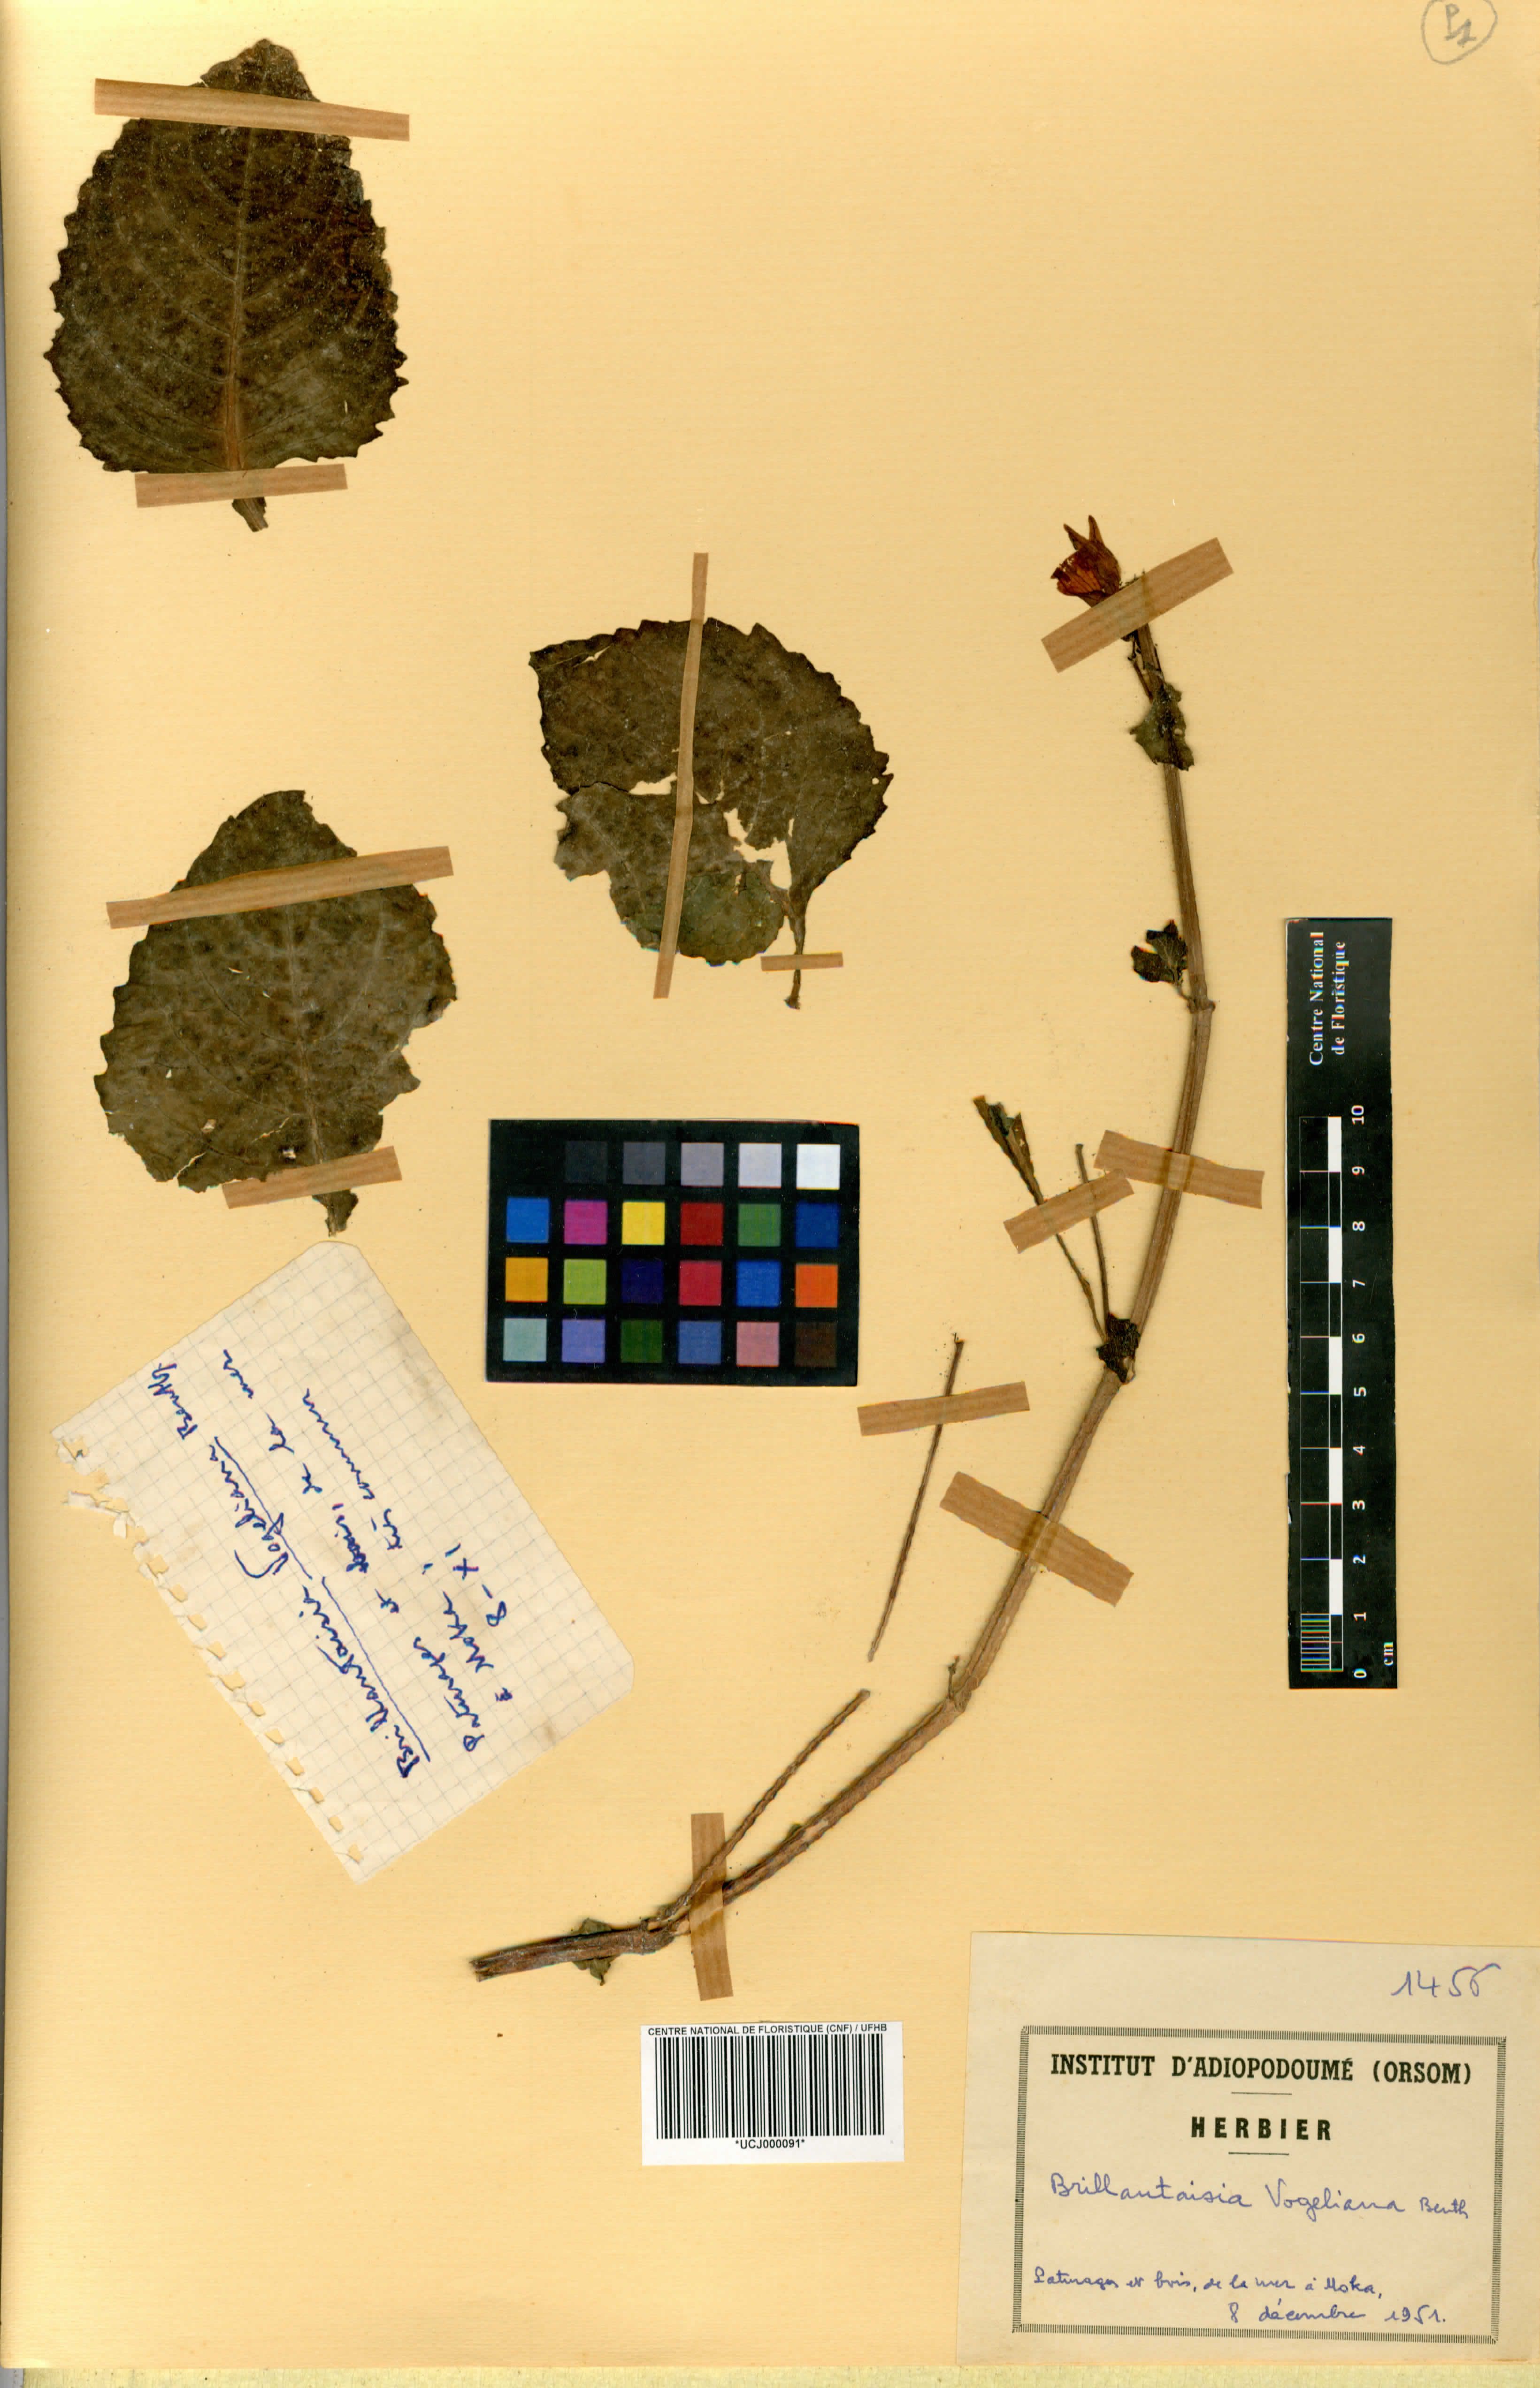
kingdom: Plantae
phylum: Tracheophyta
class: Magnoliopsida
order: Lamiales
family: Acanthaceae
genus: Brillantaisia
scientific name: Brillantaisia vogeliana
